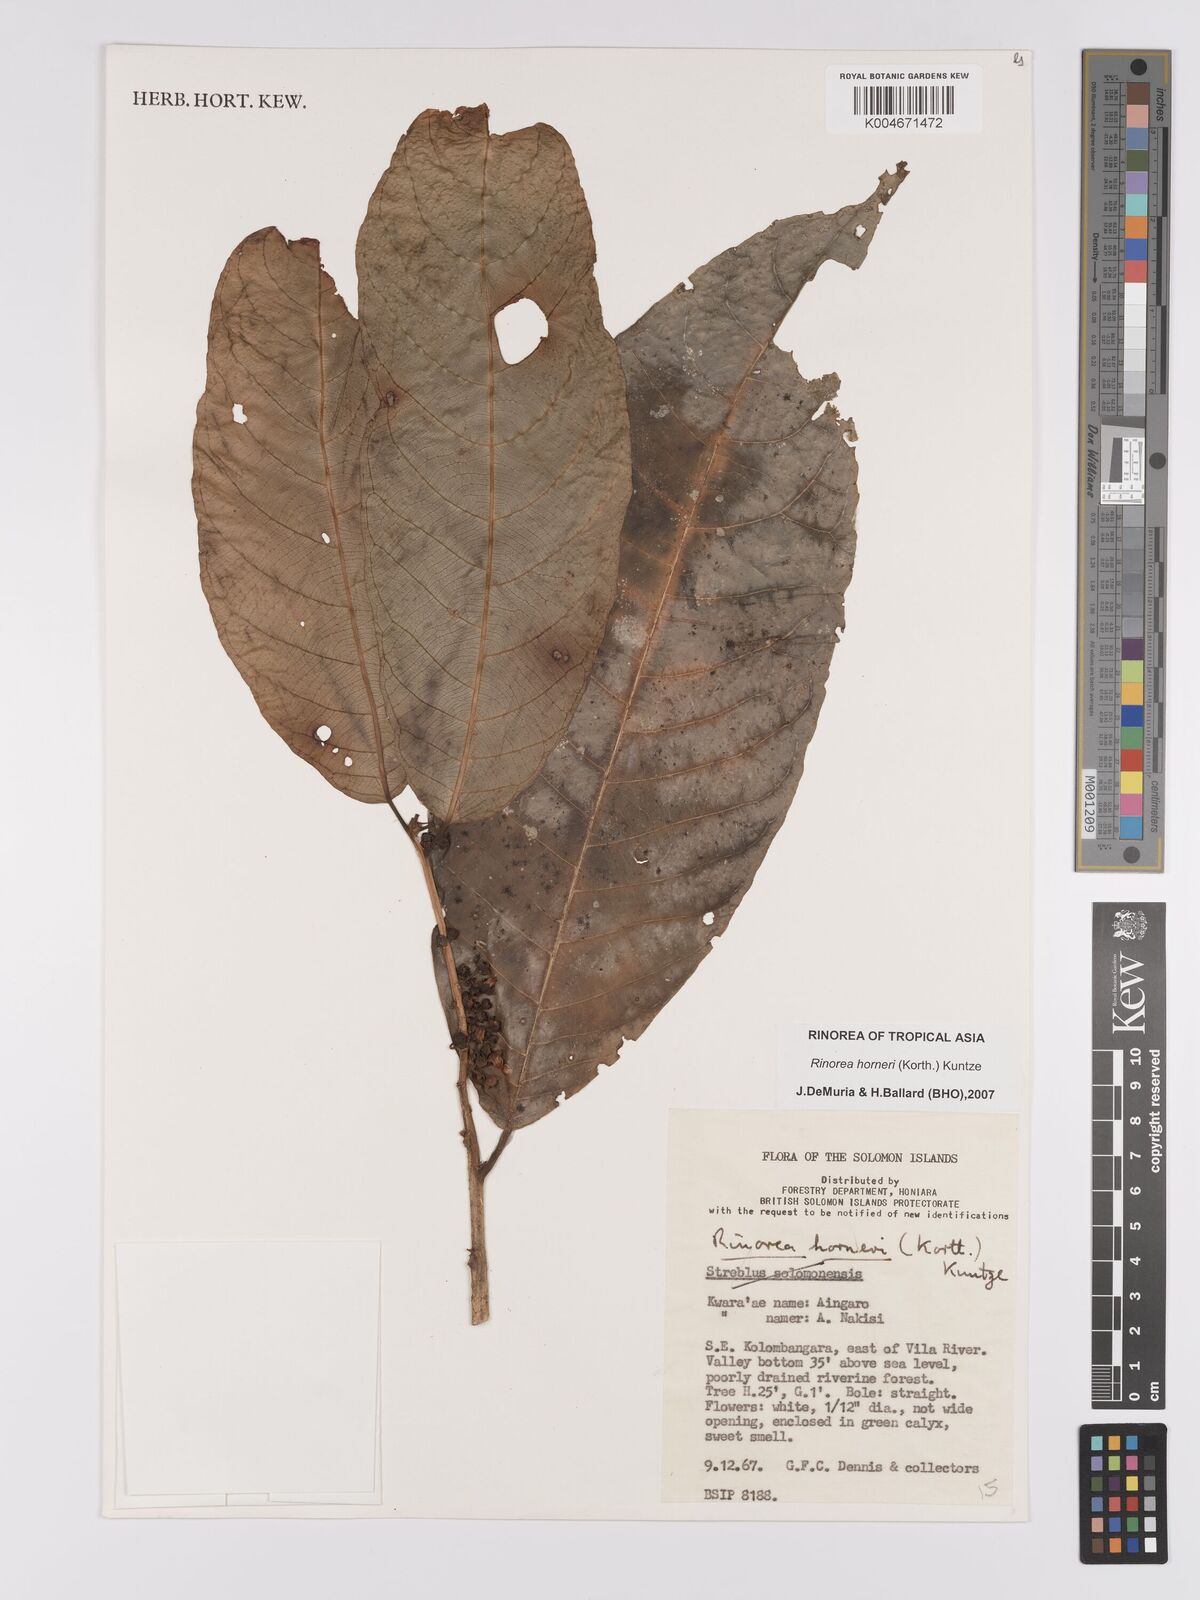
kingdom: Plantae
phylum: Tracheophyta
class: Magnoliopsida
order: Malpighiales
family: Violaceae
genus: Rinorea
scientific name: Rinorea horneri
